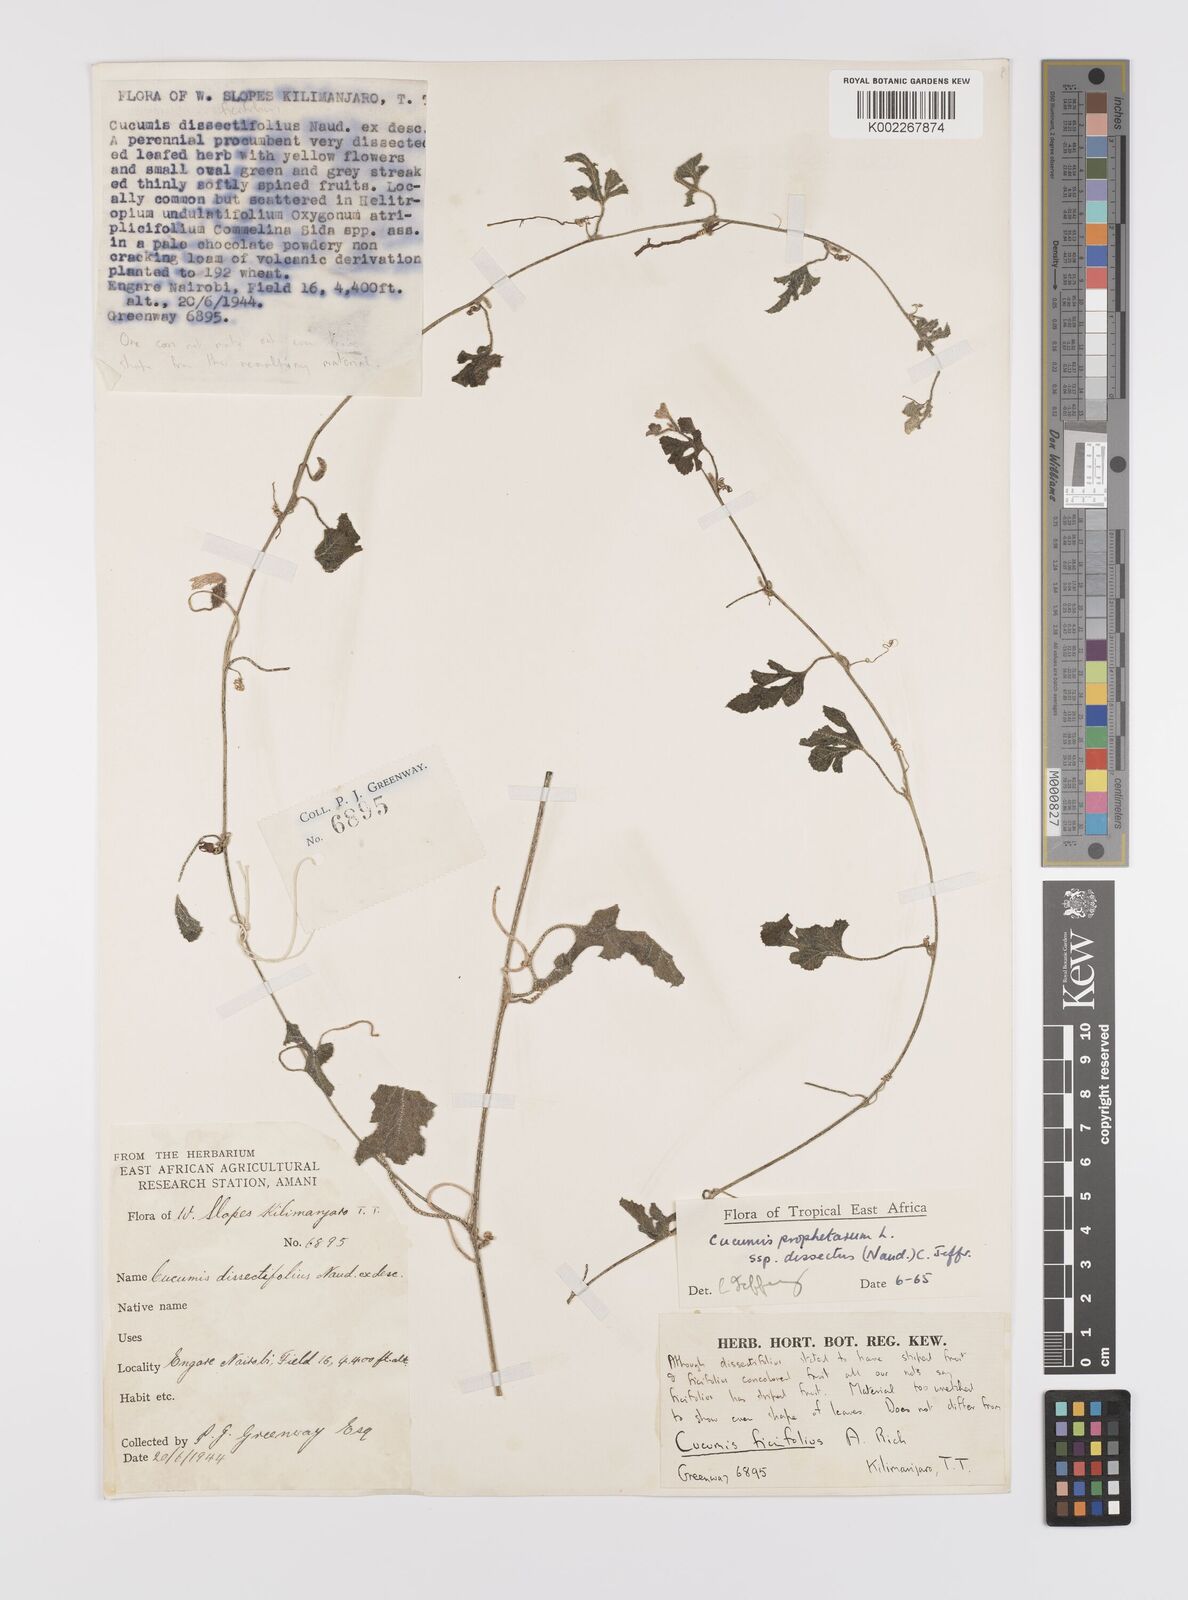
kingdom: Plantae
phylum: Tracheophyta
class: Magnoliopsida
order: Cucurbitales
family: Cucurbitaceae
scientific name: Cucurbitaceae
